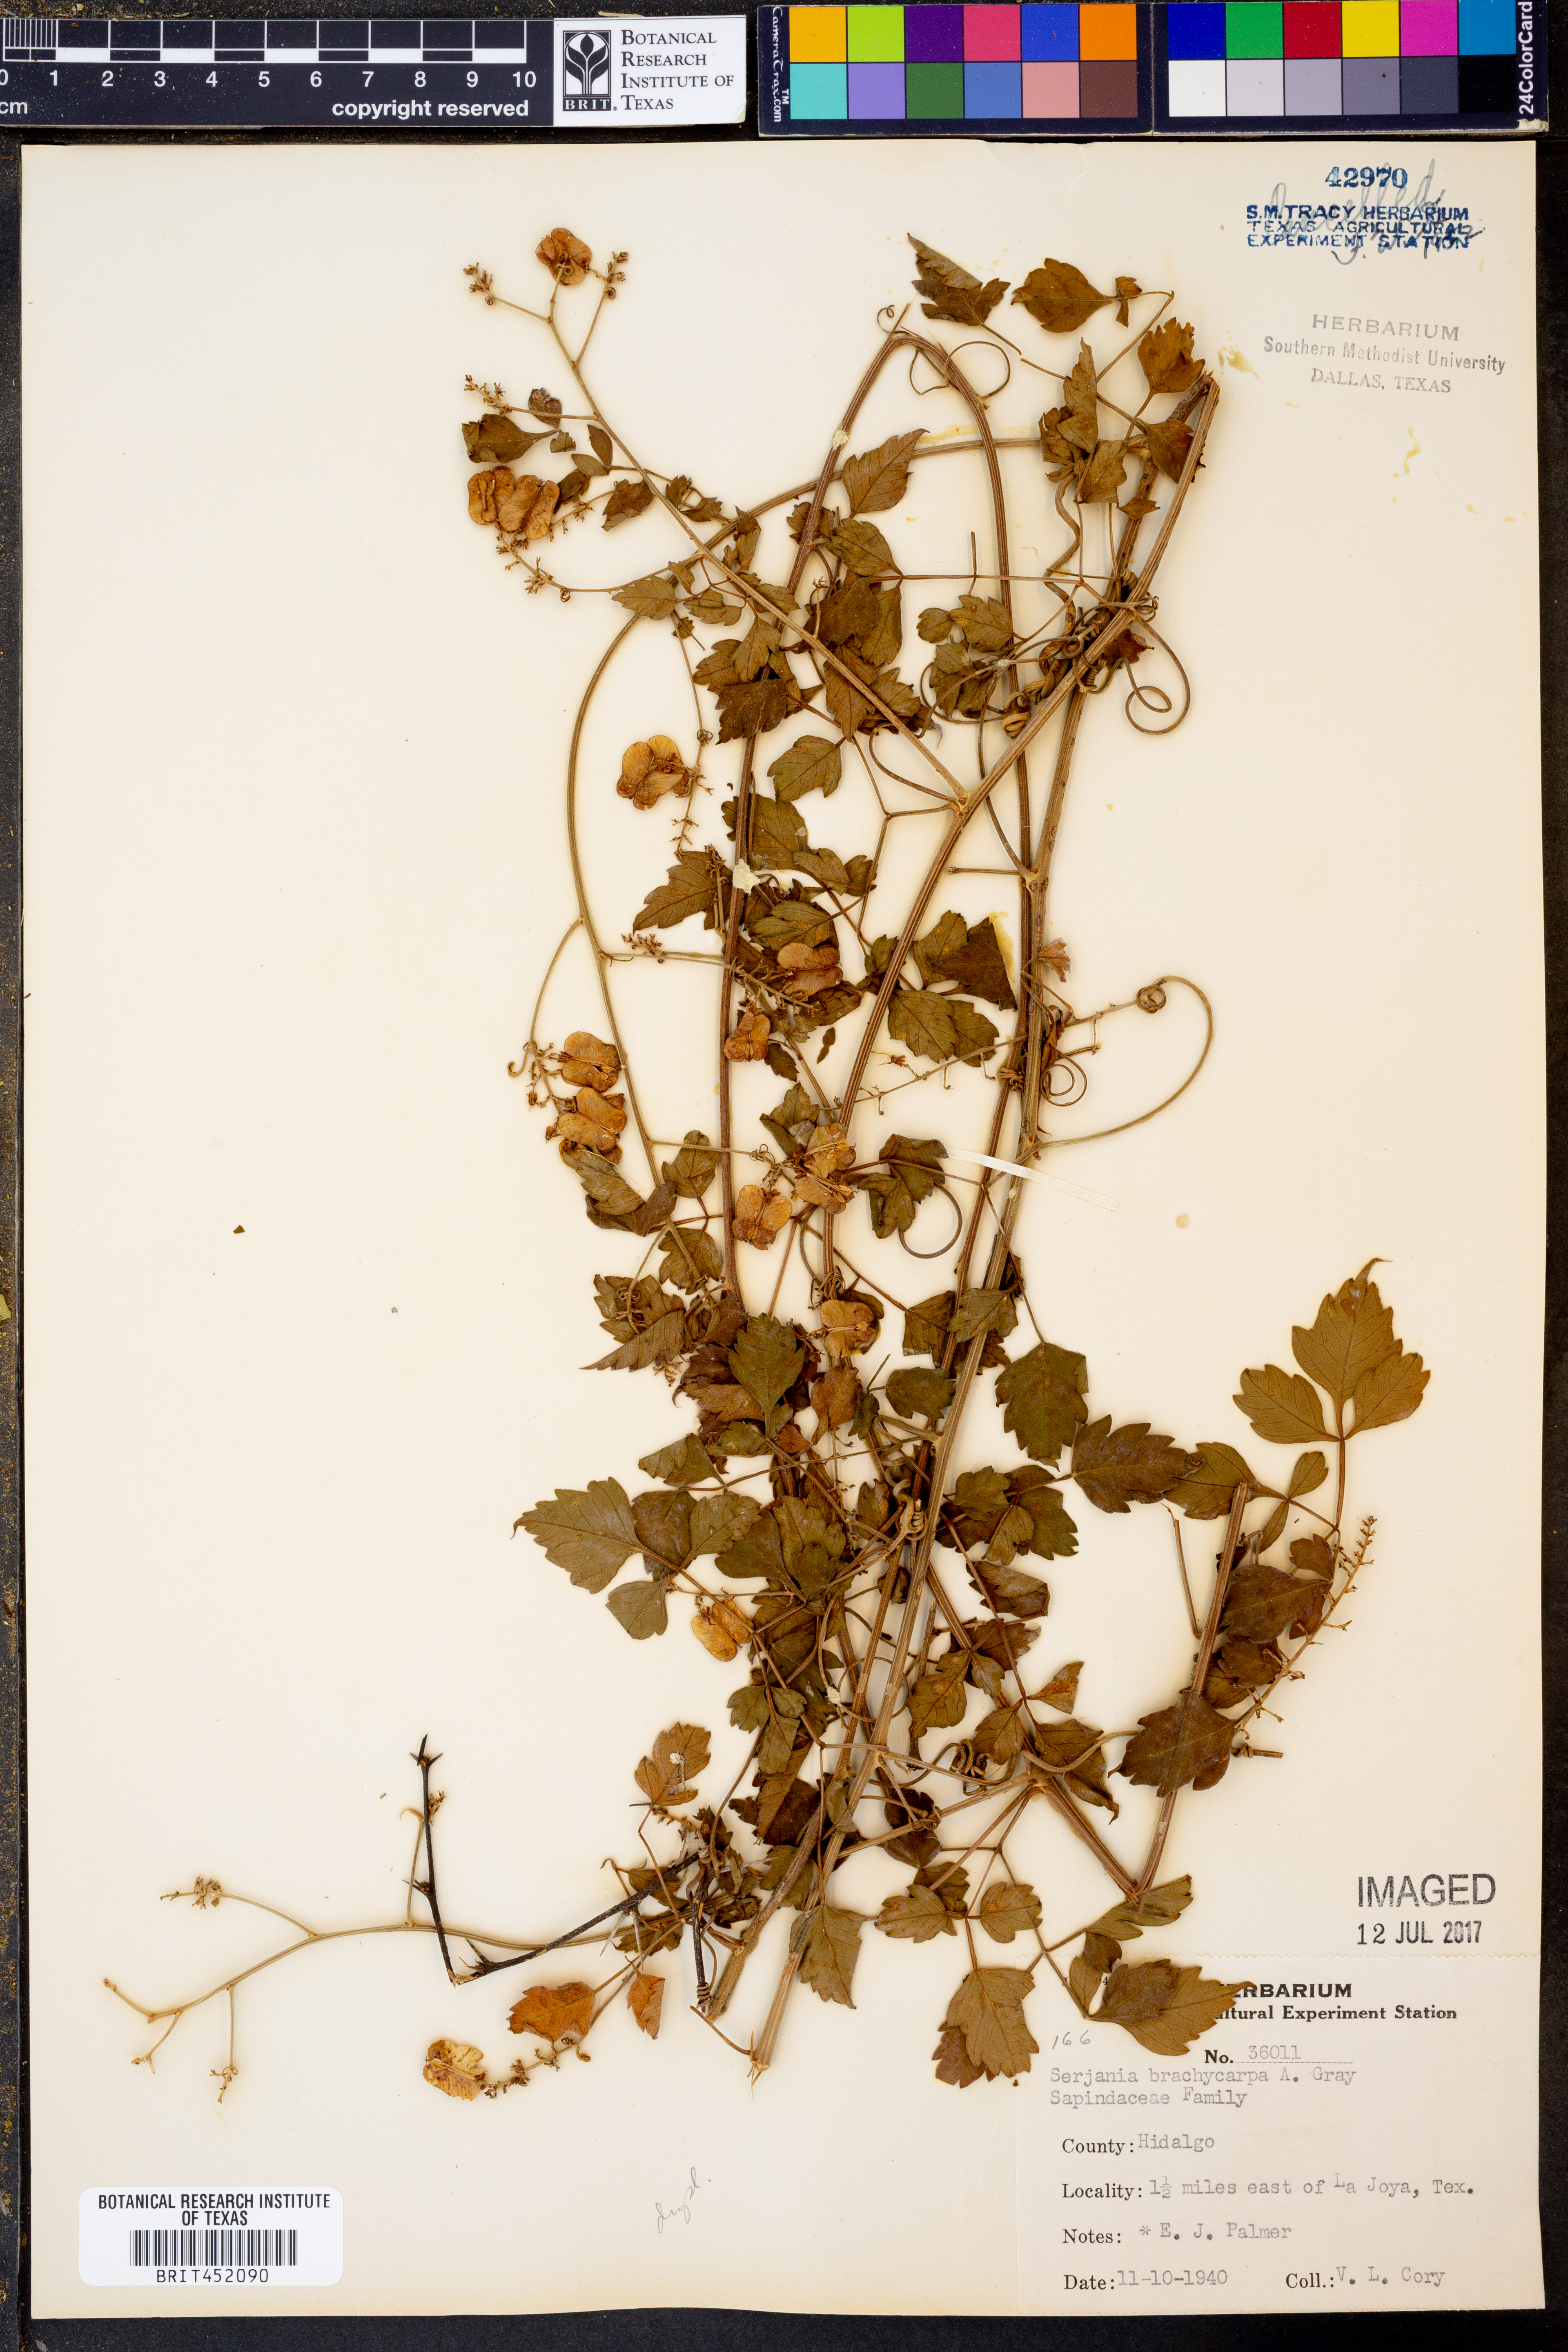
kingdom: Plantae
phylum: Tracheophyta
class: Magnoliopsida
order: Sapindales
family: Sapindaceae
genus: Serjania
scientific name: Serjania brachycarpa
